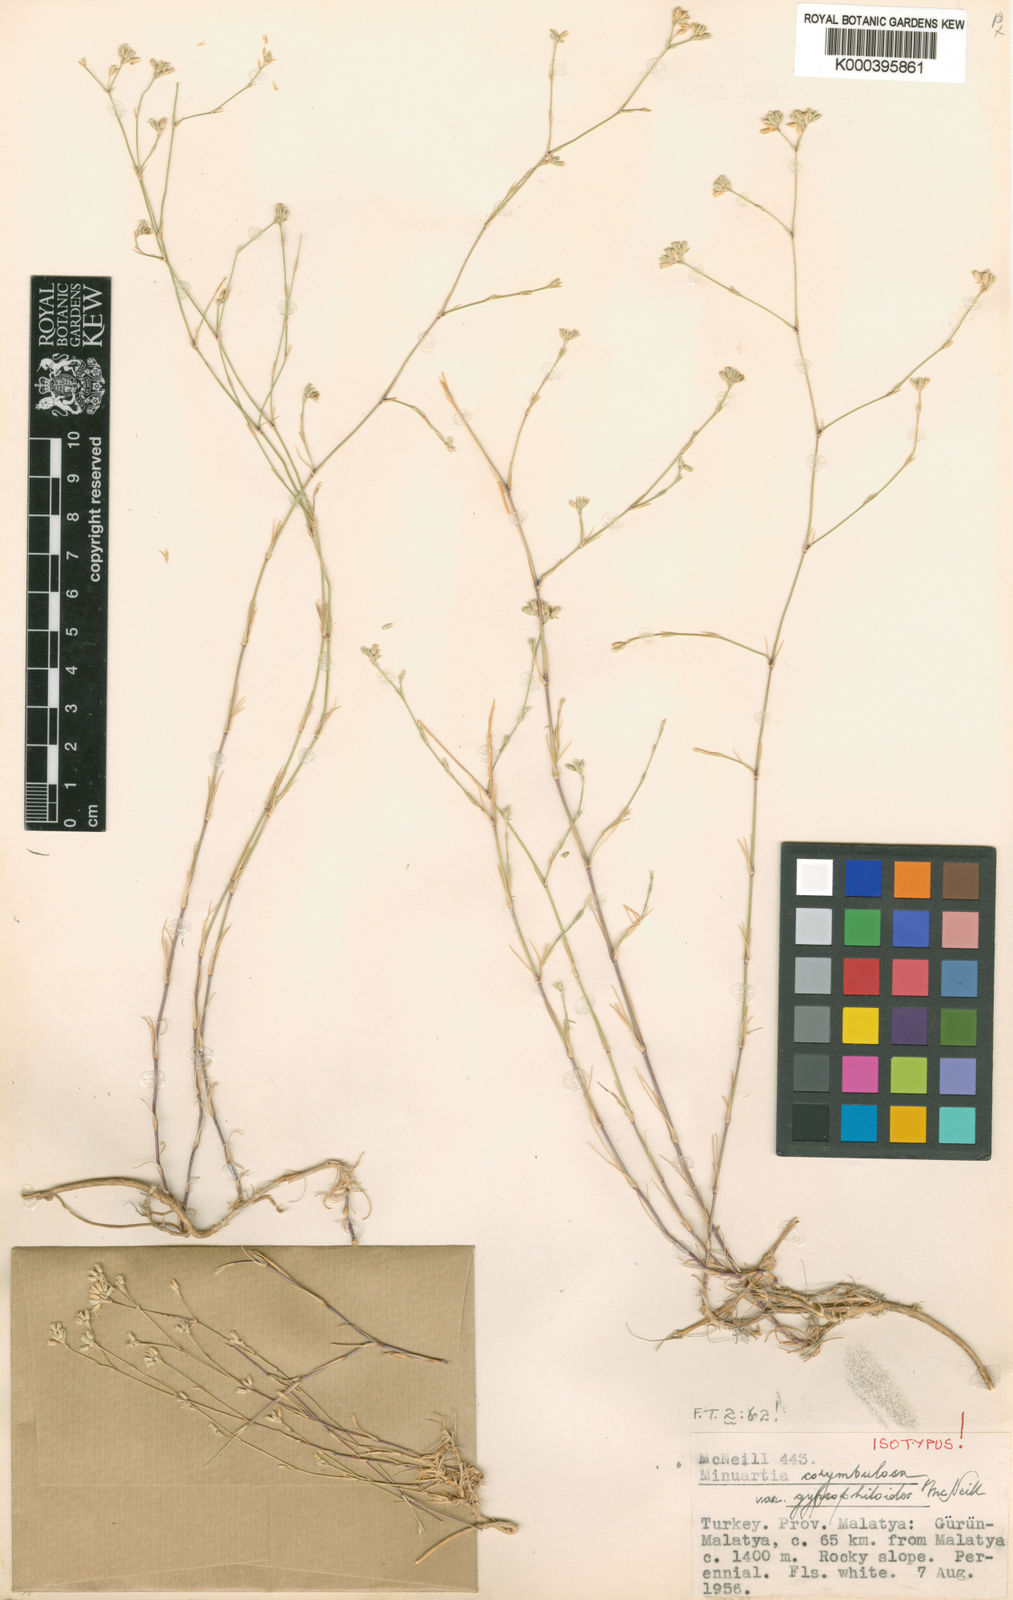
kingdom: Plantae
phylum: Tracheophyta
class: Magnoliopsida
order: Caryophyllales
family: Caryophyllaceae
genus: Minuartia
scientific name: Minuartia corymbulosa
